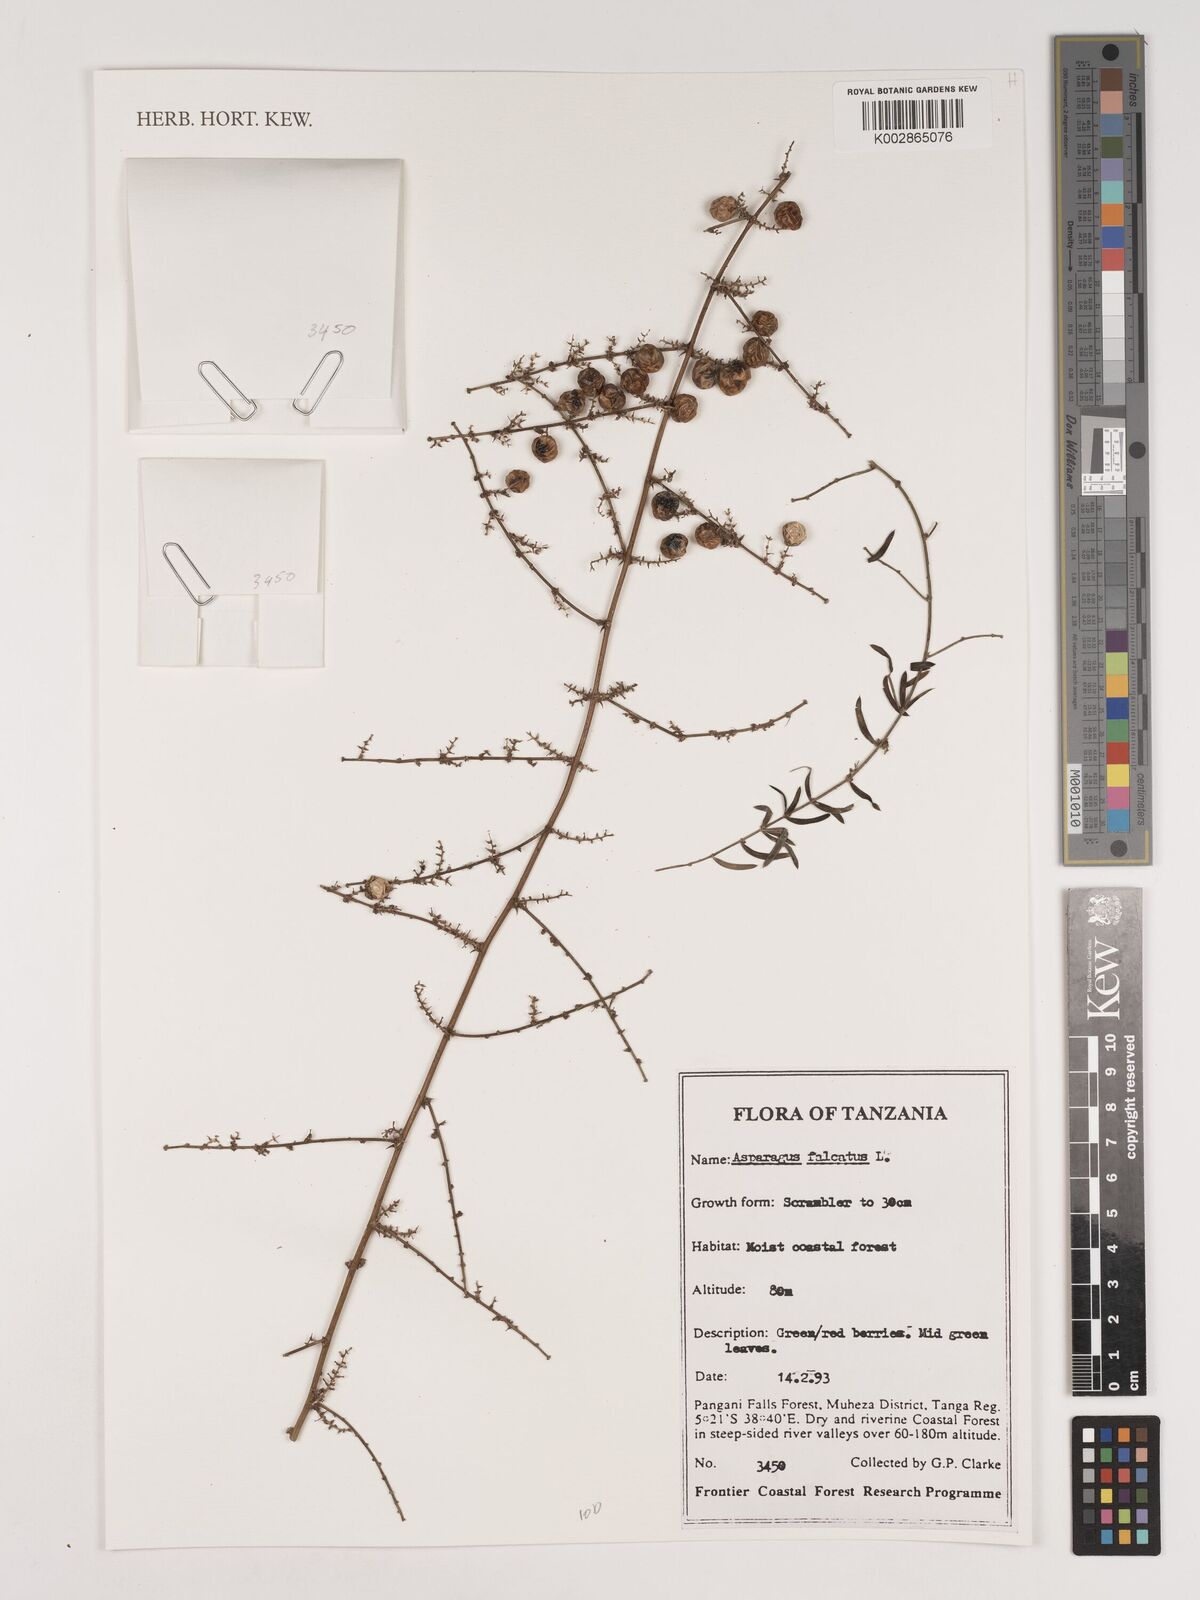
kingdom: Plantae
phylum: Tracheophyta
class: Liliopsida
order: Asparagales
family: Asparagaceae
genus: Asparagus
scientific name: Asparagus falcatus
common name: Asparagus
